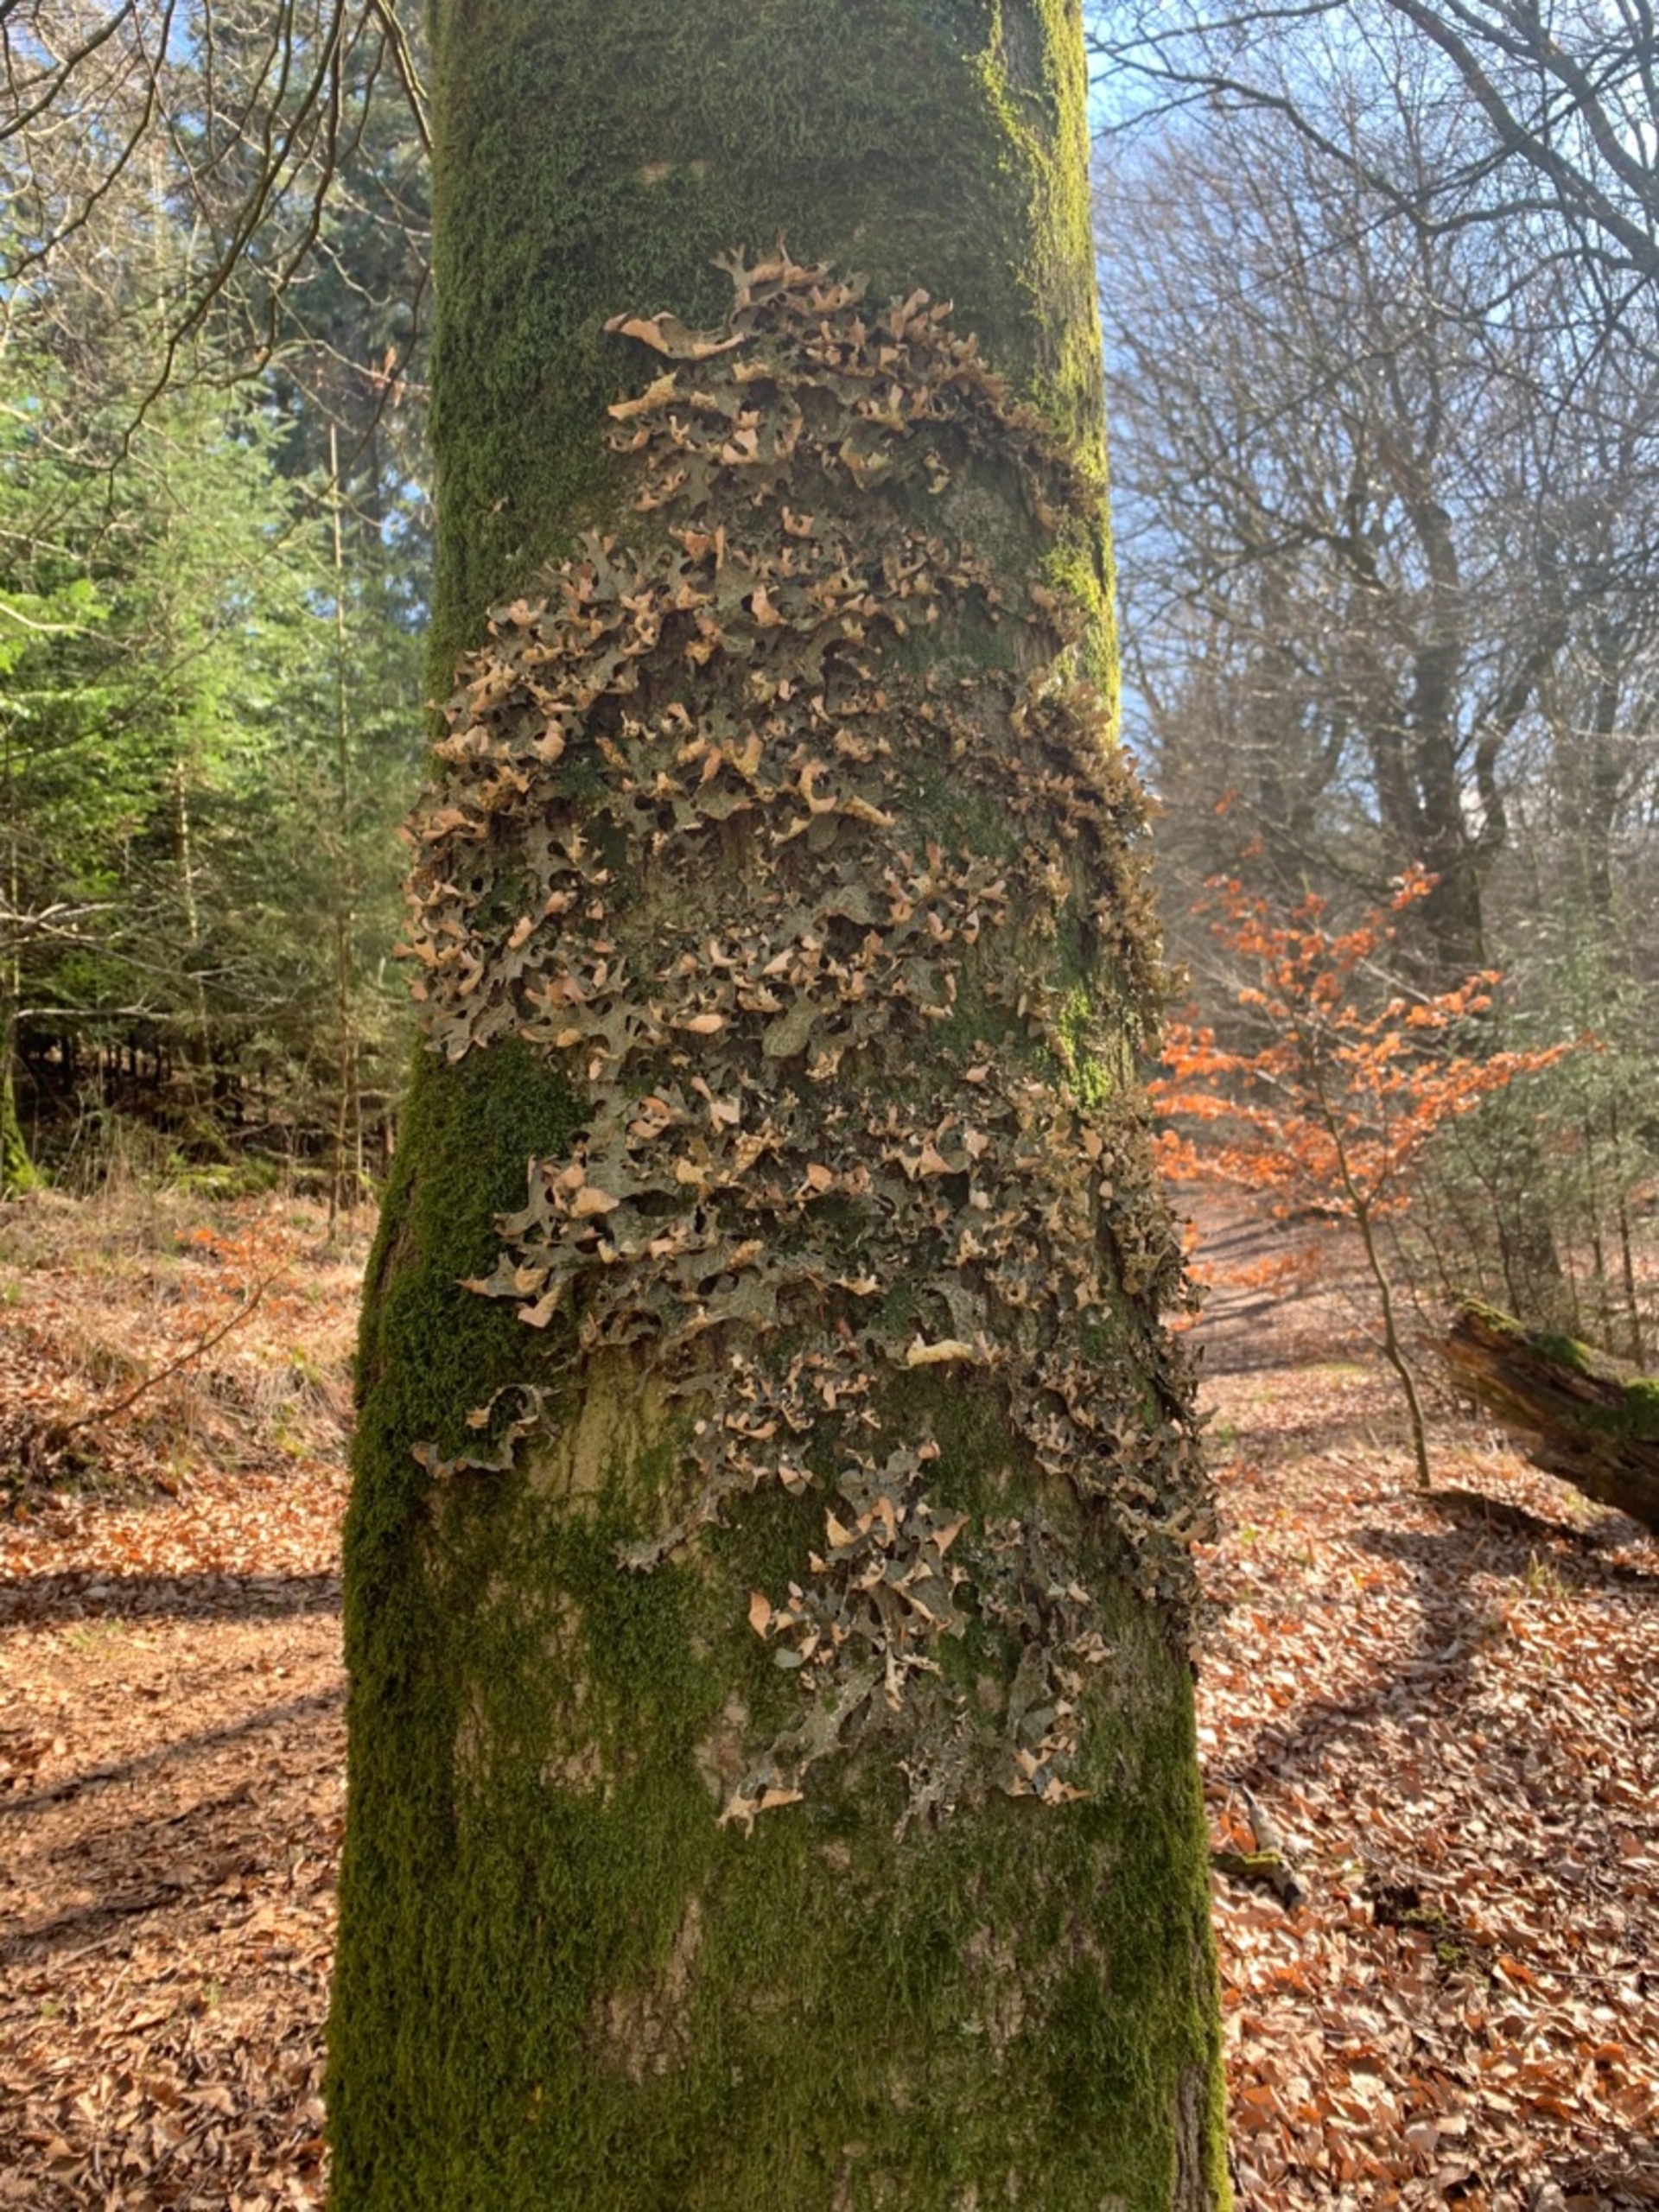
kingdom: Fungi
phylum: Ascomycota
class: Lecanoromycetes
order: Peltigerales
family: Lobariaceae
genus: Lobaria
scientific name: Lobaria pulmonaria
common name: Almindelig lungelav
